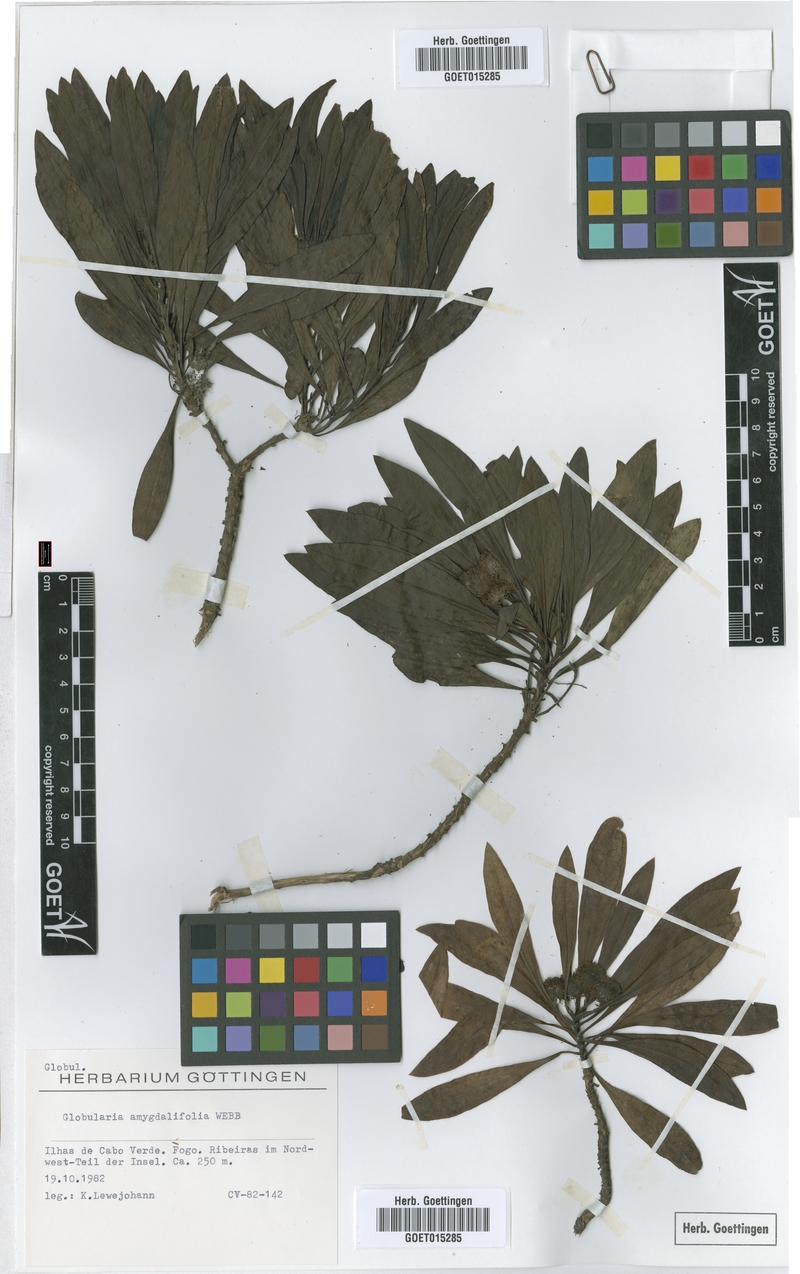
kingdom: Plantae
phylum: Tracheophyta
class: Magnoliopsida
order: Lamiales
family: Plantaginaceae
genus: Globularia
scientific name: Globularia amygdalifolia
